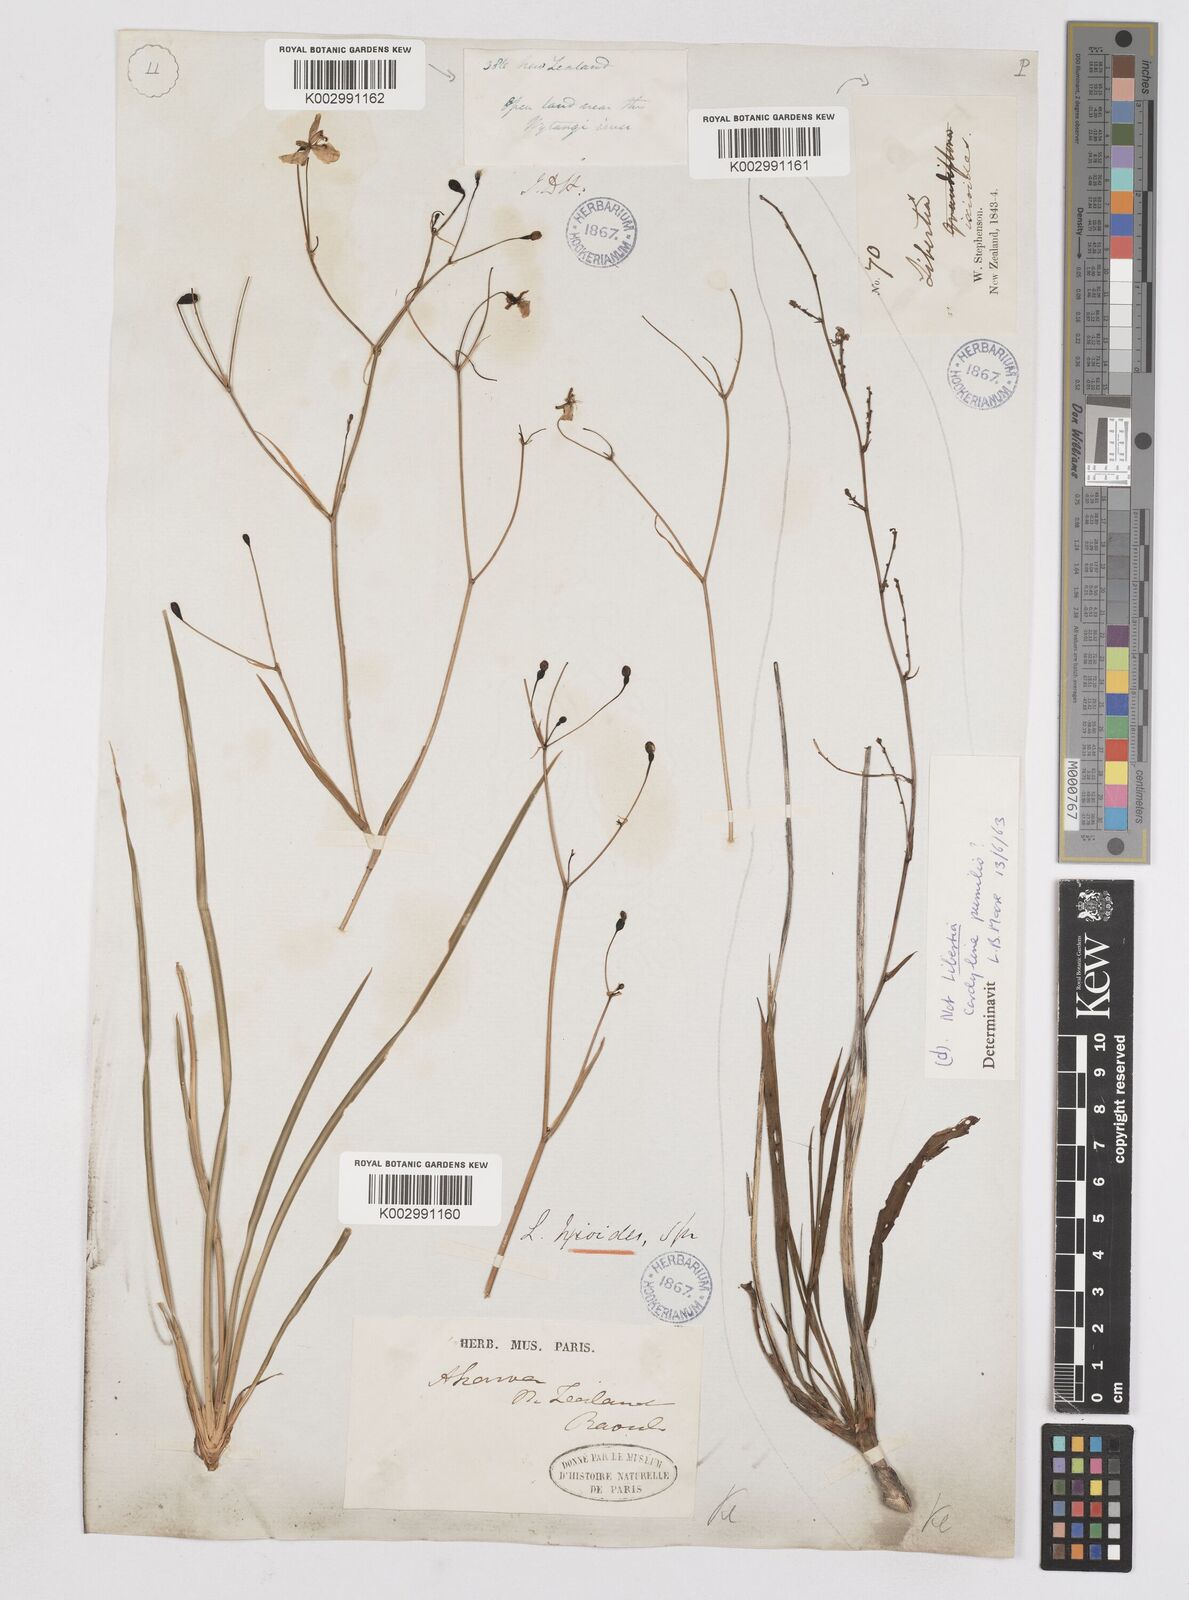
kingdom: Plantae
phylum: Tracheophyta
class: Liliopsida
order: Asparagales
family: Iridaceae
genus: Libertia
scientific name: Libertia ixioides
